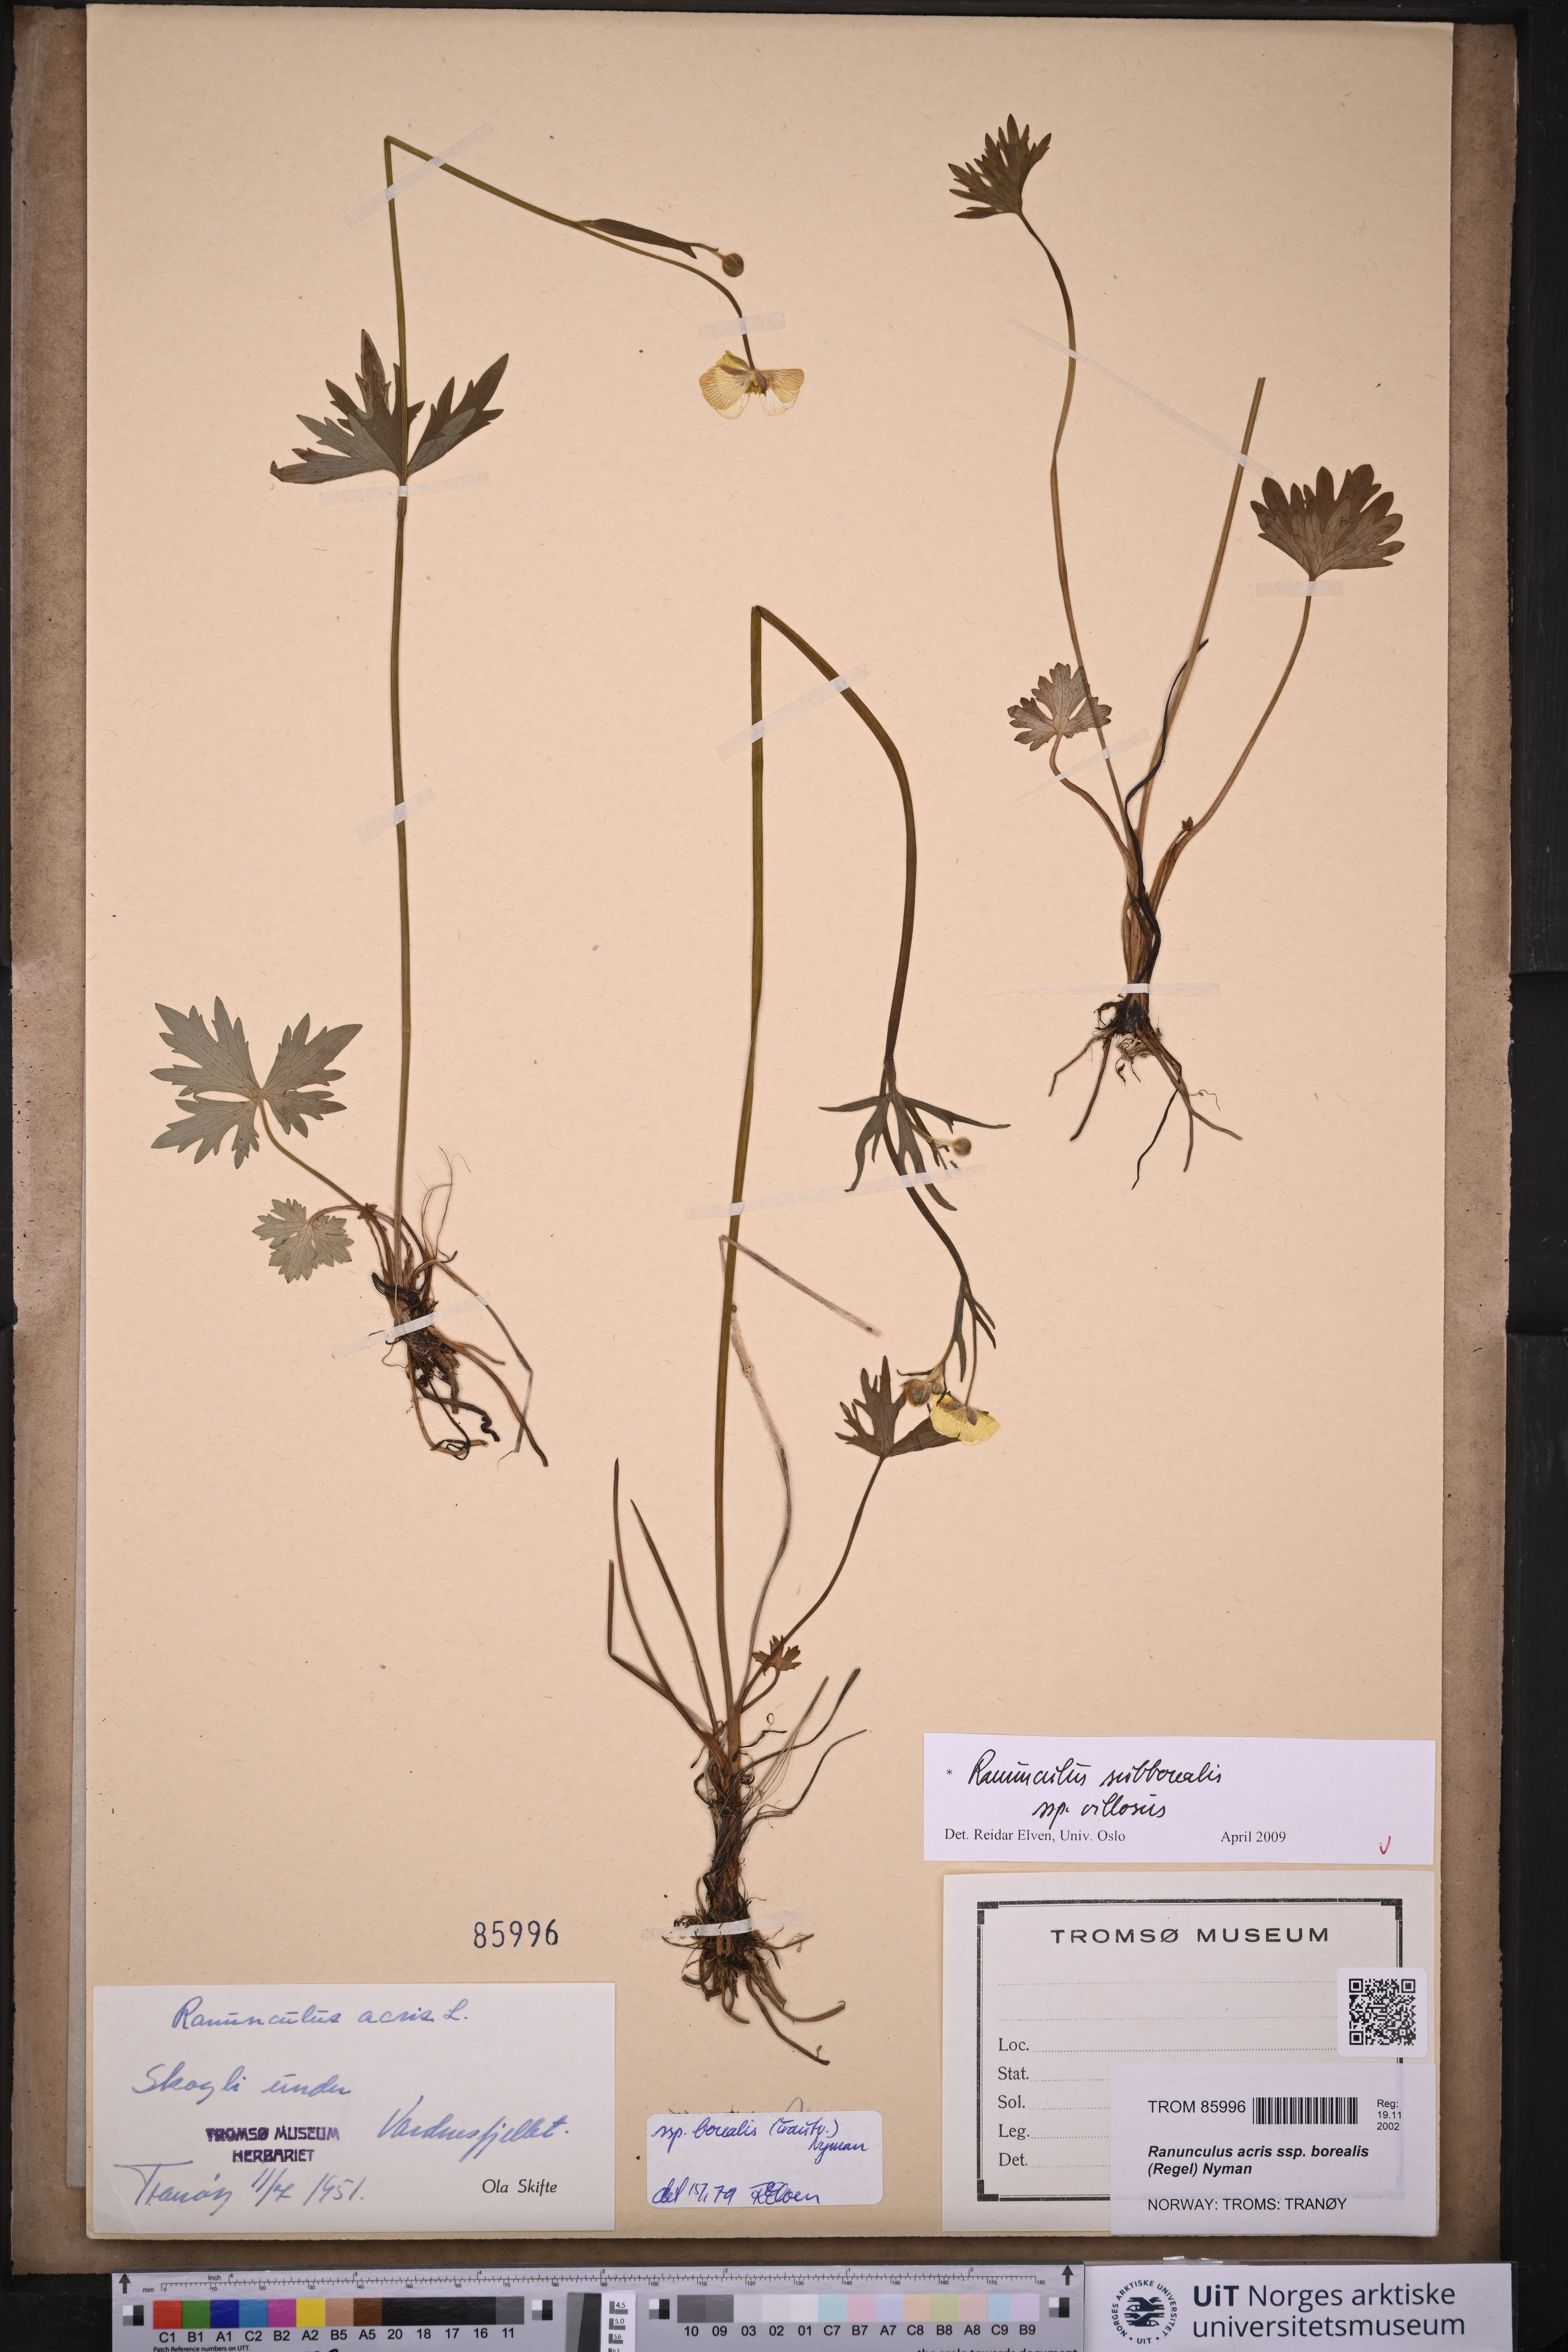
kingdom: Plantae
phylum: Tracheophyta
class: Magnoliopsida
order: Ranunculales
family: Ranunculaceae
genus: Ranunculus
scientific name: Ranunculus propinquus
